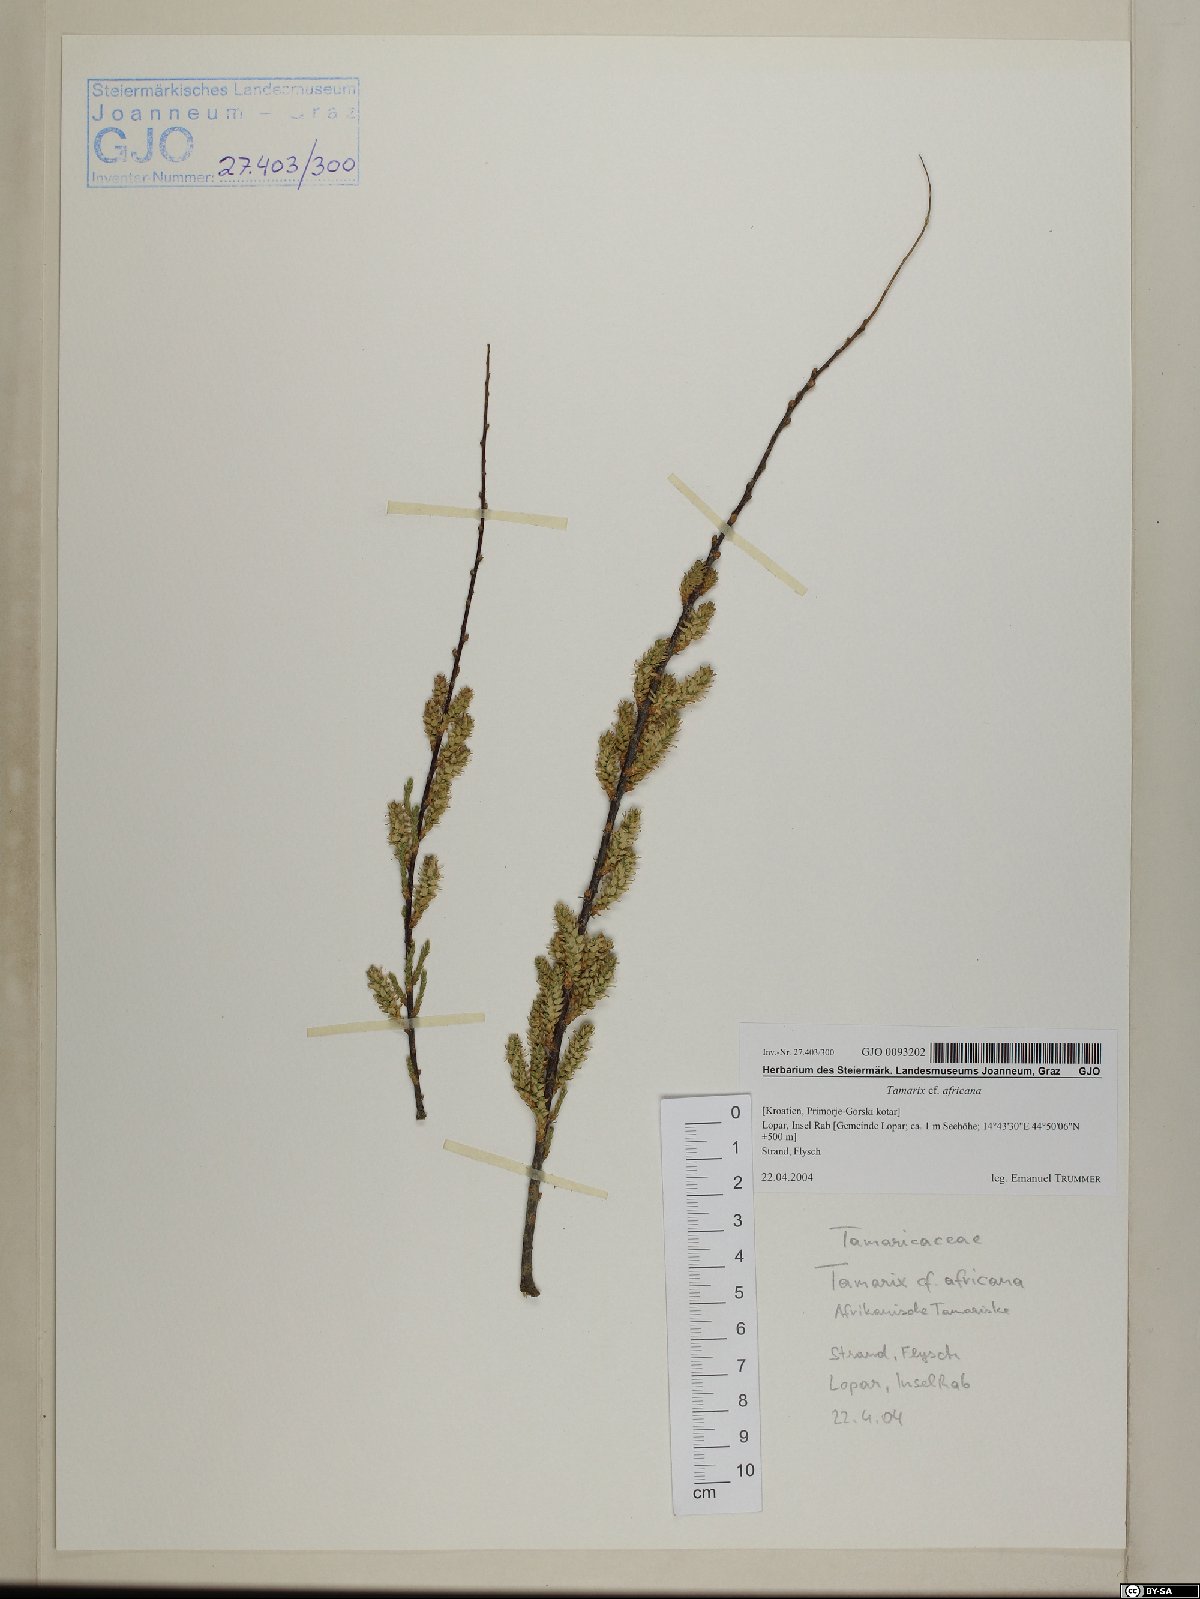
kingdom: Plantae
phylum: Tracheophyta
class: Magnoliopsida
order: Caryophyllales
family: Tamaricaceae
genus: Tamarix
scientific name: Tamarix africana
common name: African tamarisk
